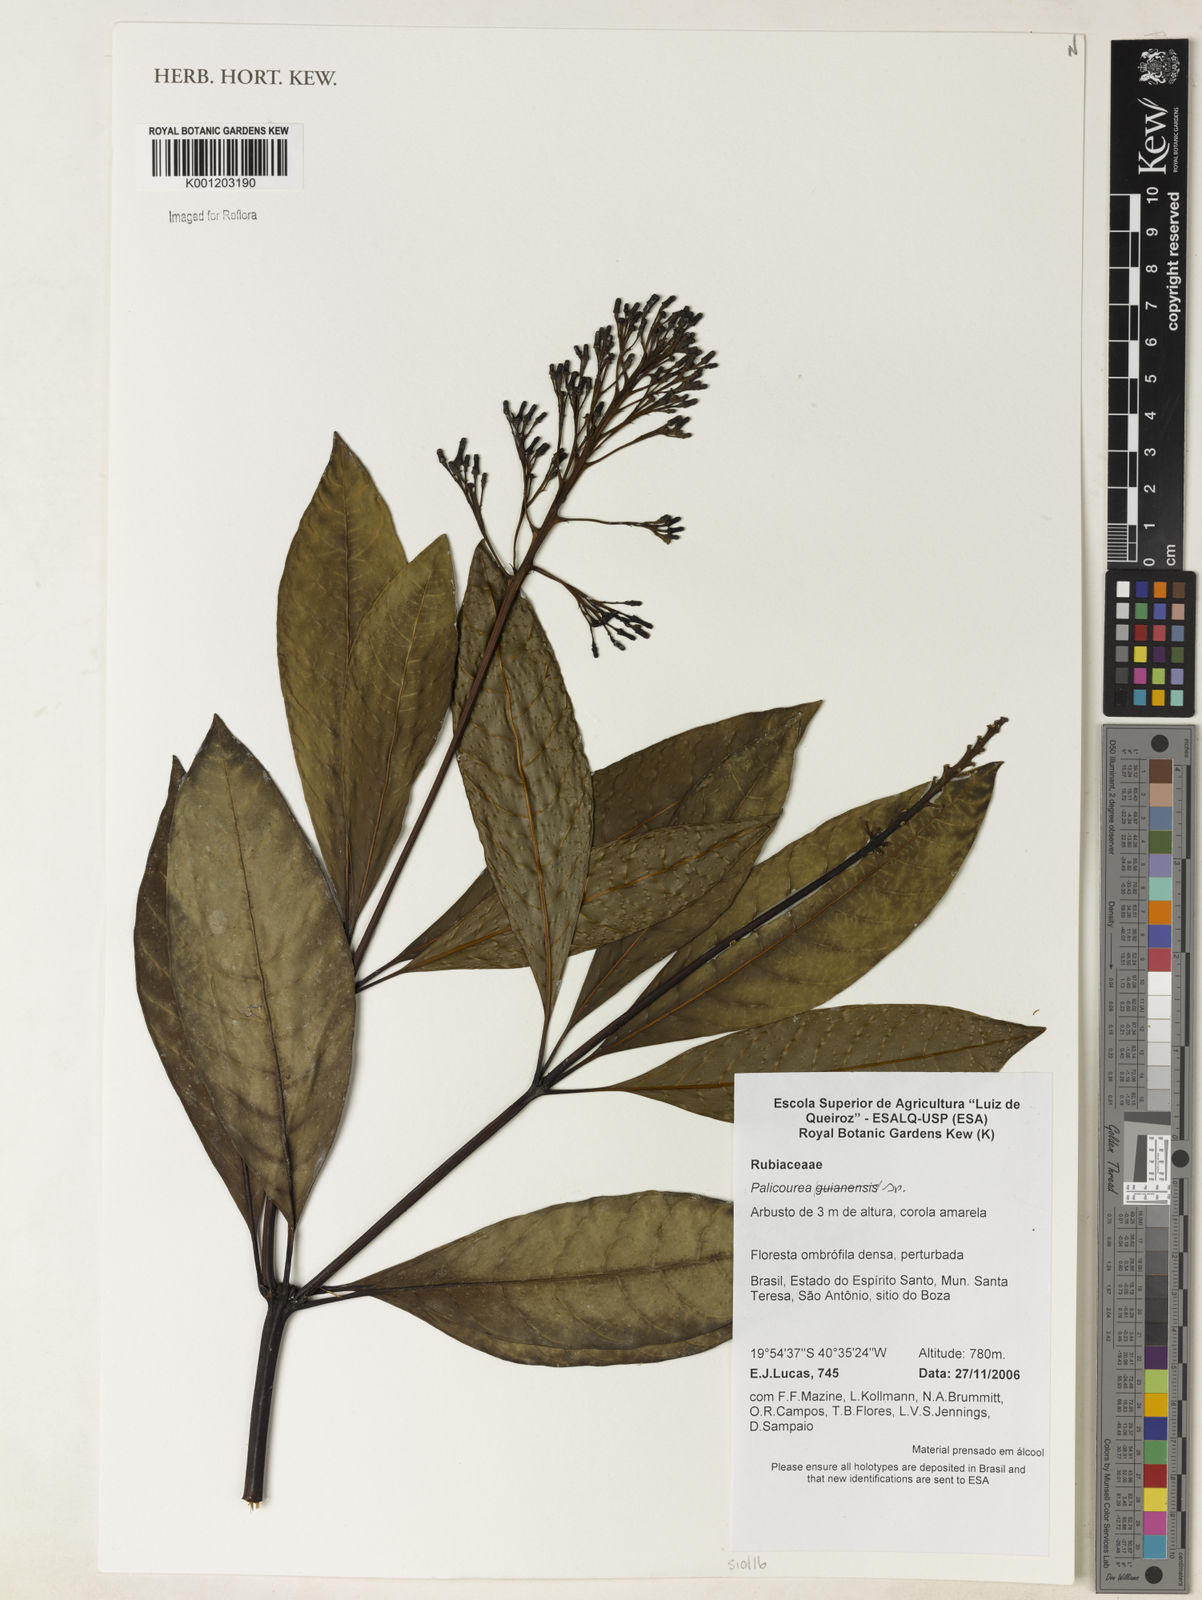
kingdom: Plantae
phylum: Tracheophyta
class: Magnoliopsida
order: Gentianales
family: Rubiaceae
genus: Palicourea
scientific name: Palicourea
